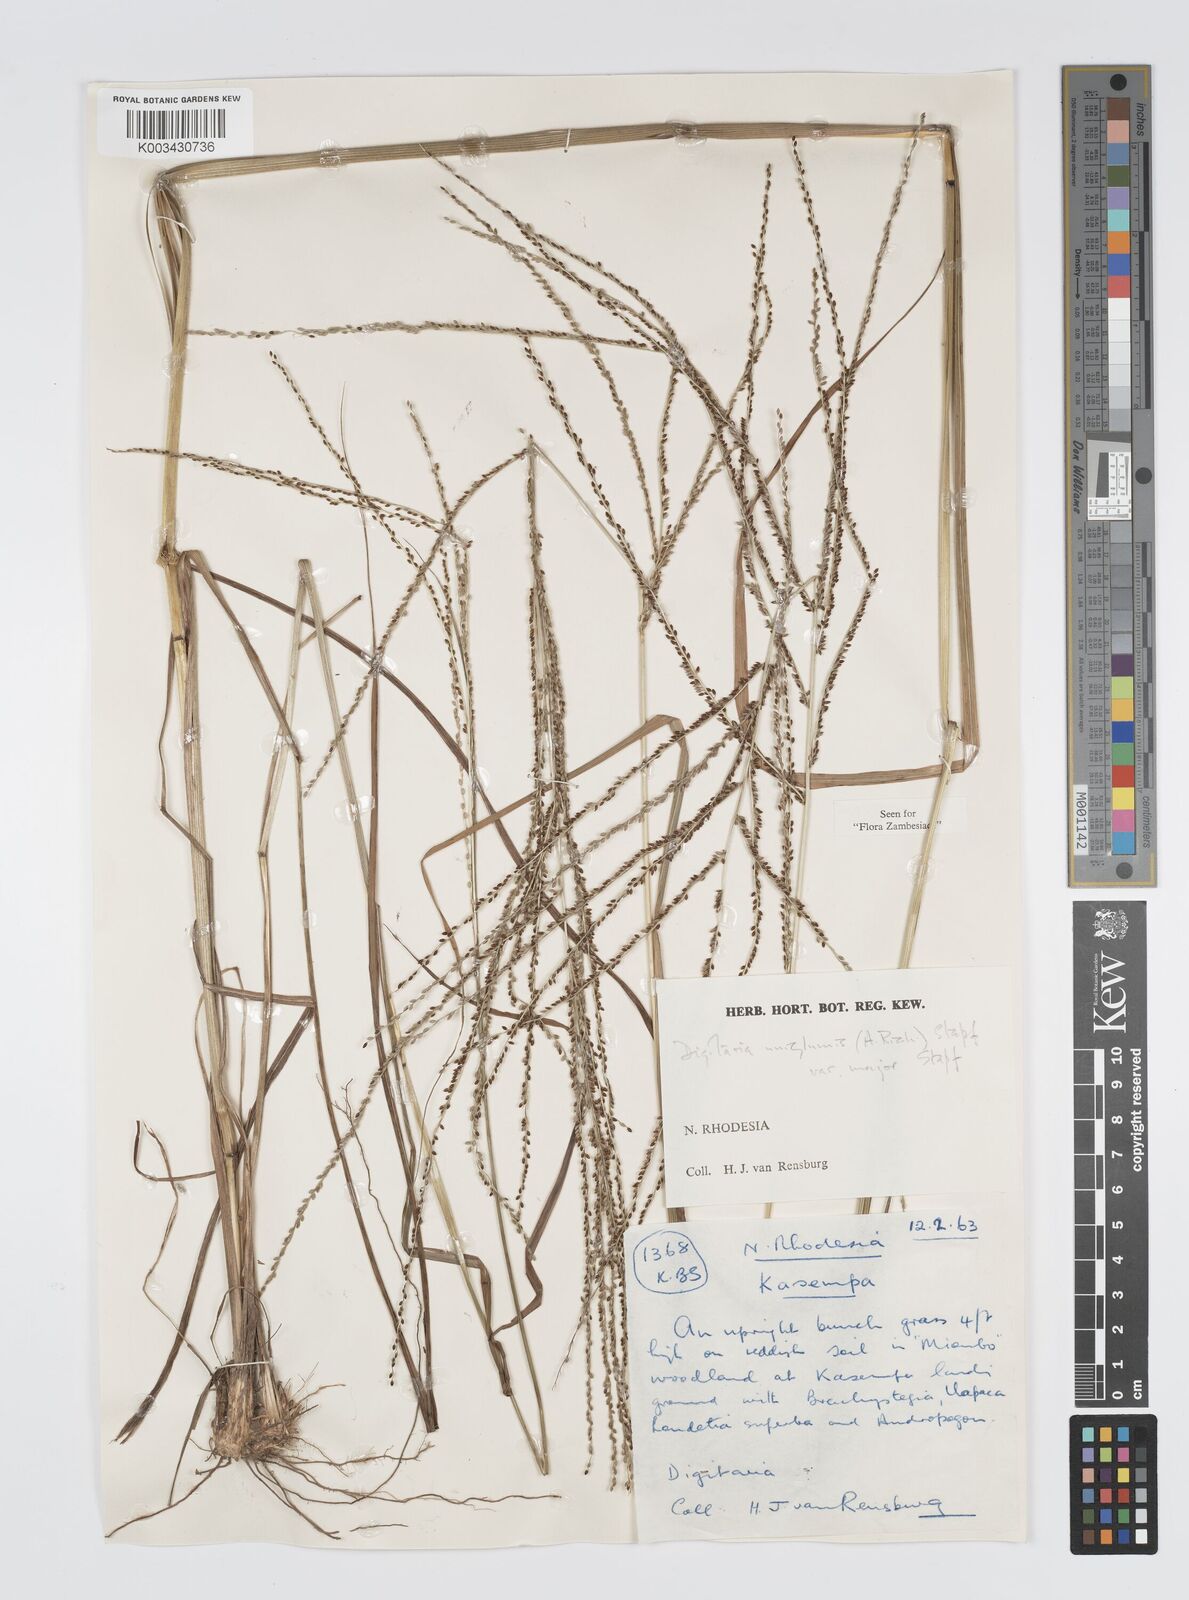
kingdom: Plantae
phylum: Tracheophyta
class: Liliopsida
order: Poales
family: Poaceae
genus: Digitaria
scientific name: Digitaria diagonalis
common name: Brown-seed finger grass
